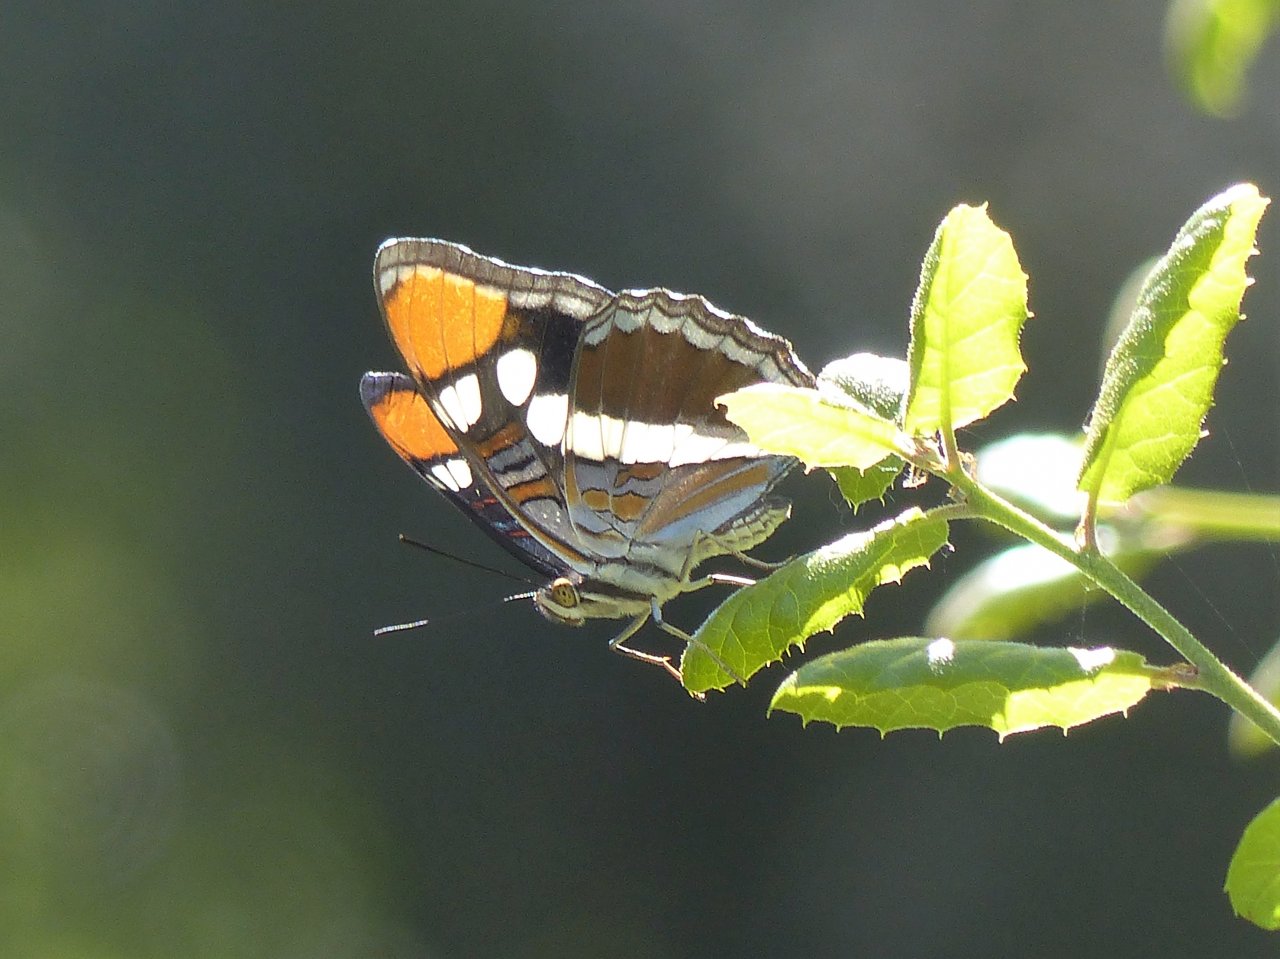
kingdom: Animalia
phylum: Arthropoda
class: Insecta
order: Lepidoptera
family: Nymphalidae
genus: Limenitis
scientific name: Limenitis bredowii
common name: California Sister
